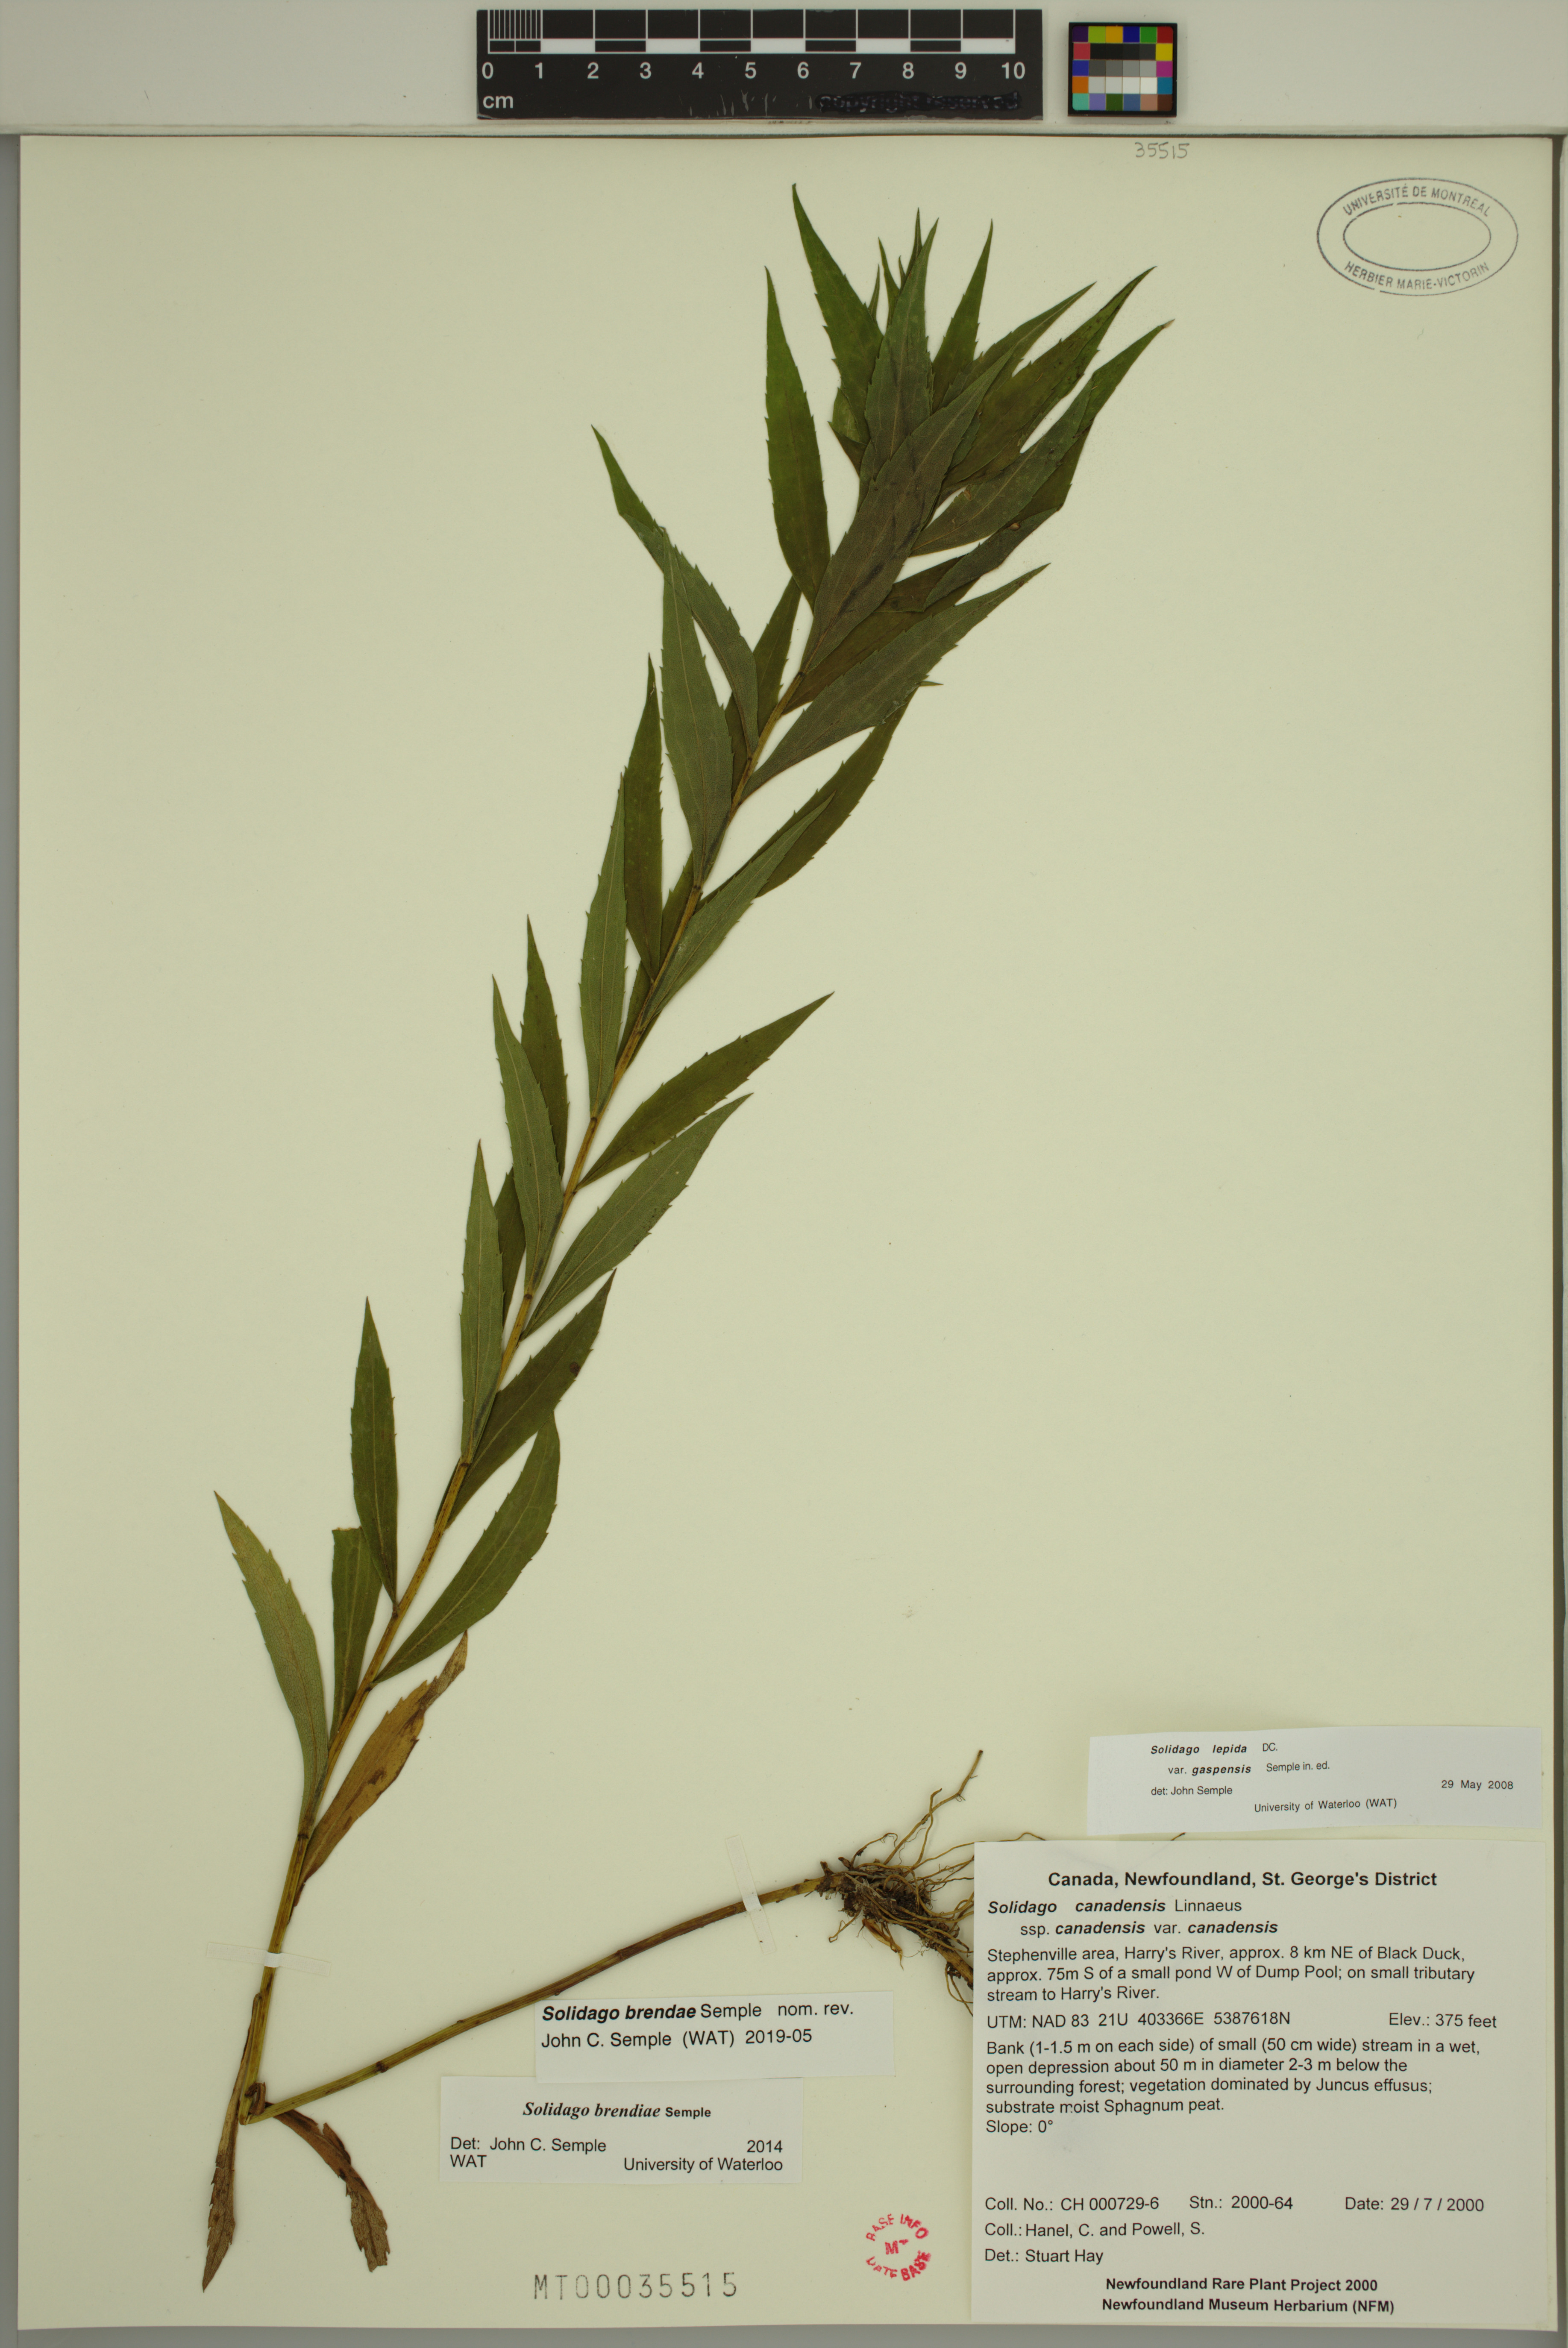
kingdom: Plantae
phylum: Tracheophyta
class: Magnoliopsida
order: Asterales
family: Asteraceae
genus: Solidago
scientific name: Solidago brendae
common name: Brenda's goldenrod
